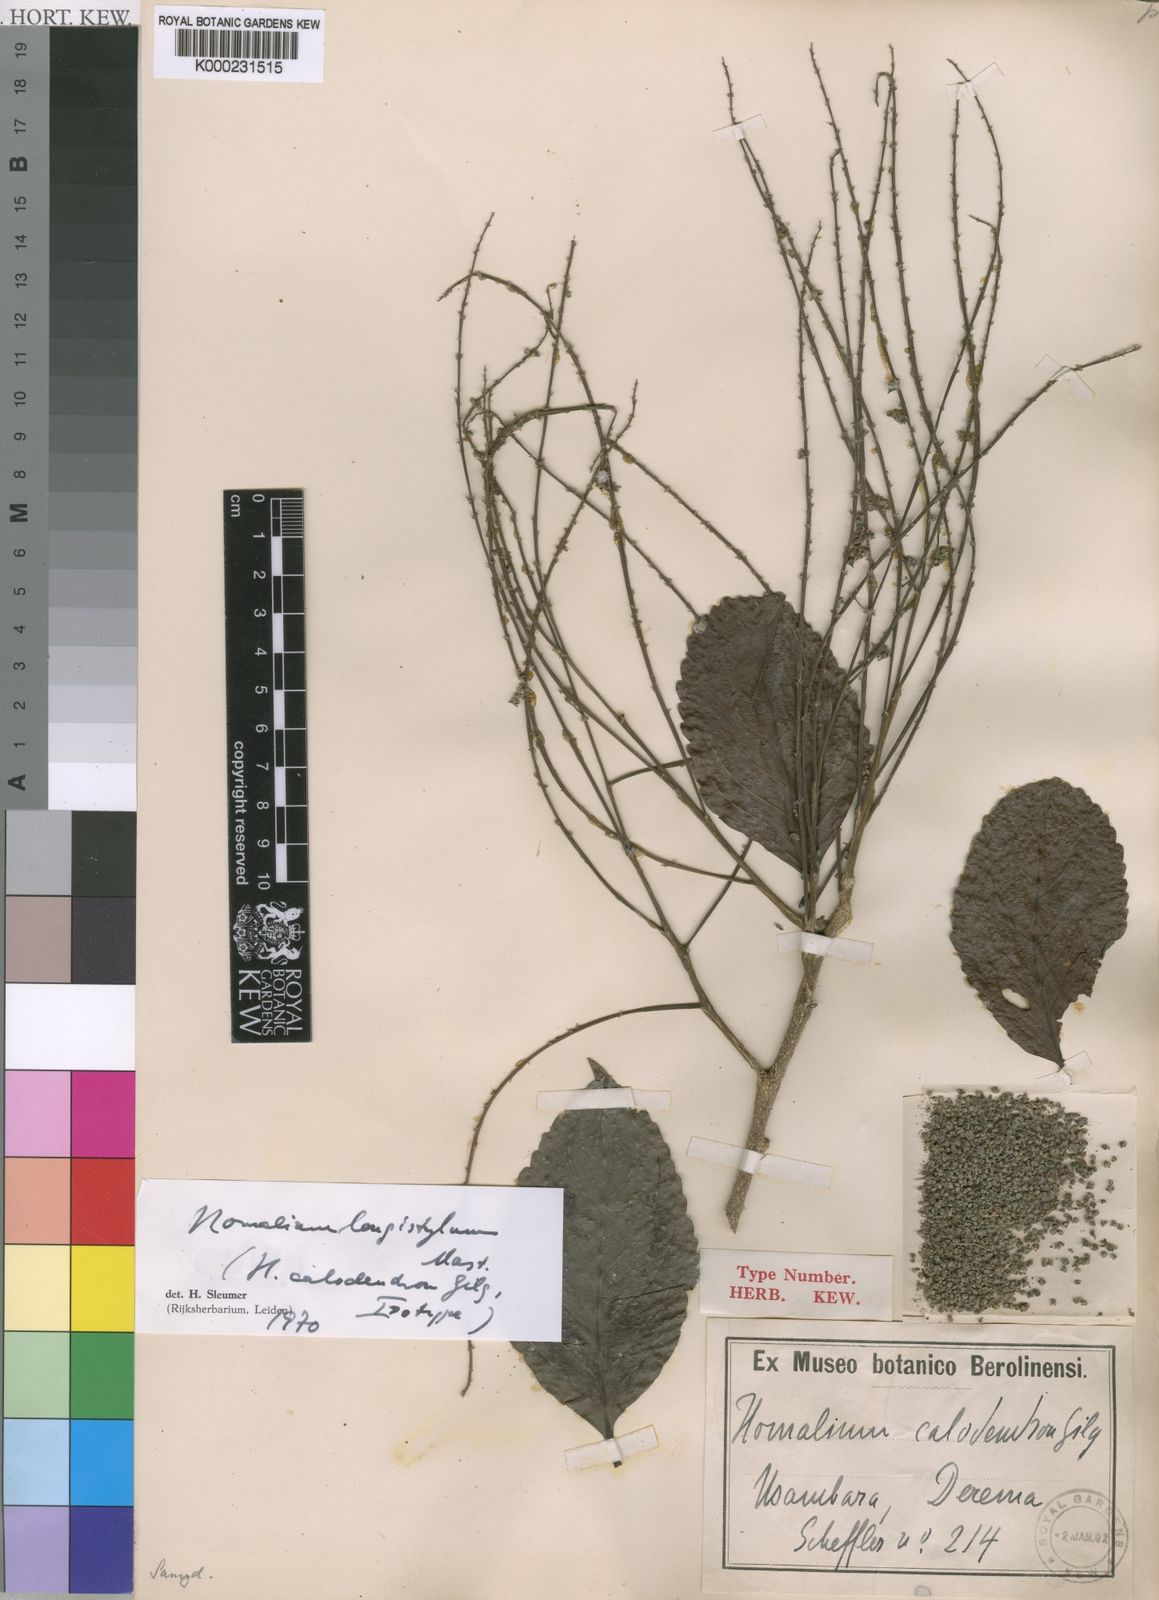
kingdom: Plantae
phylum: Tracheophyta
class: Magnoliopsida
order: Malpighiales
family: Salicaceae
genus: Homalium
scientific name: Homalium longistylum
